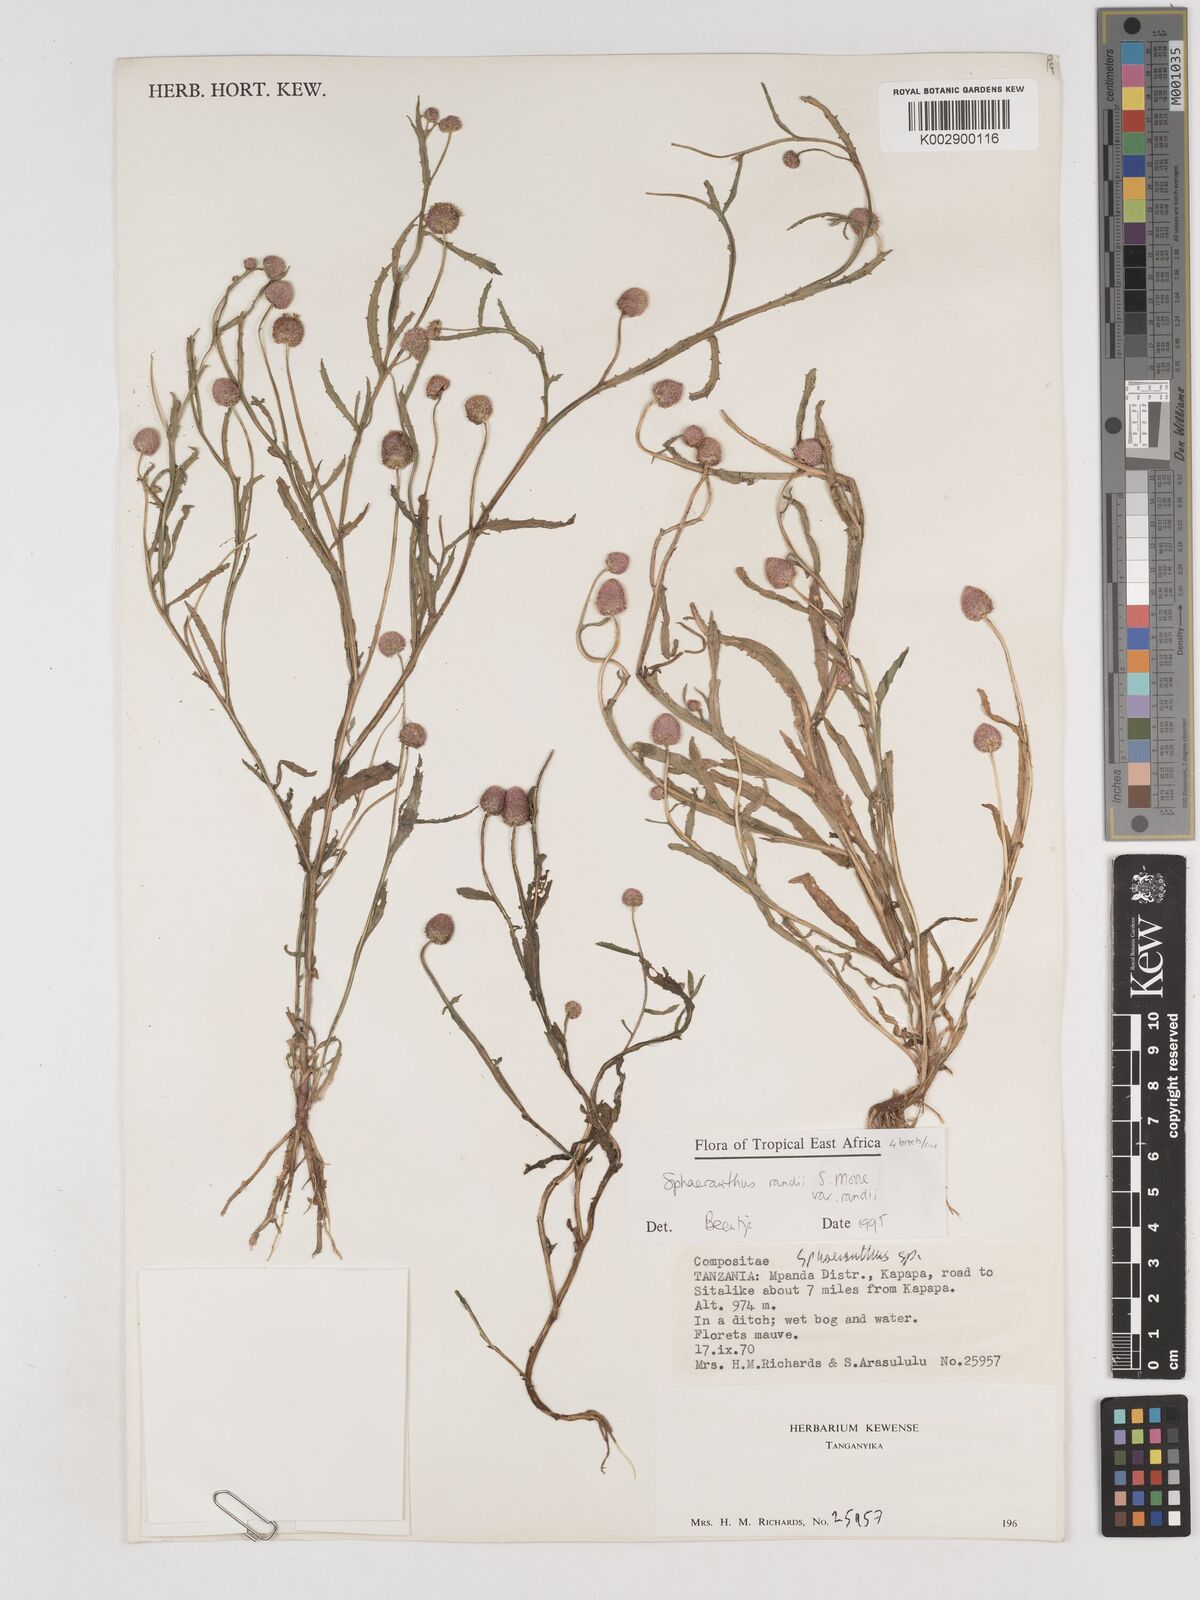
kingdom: Plantae
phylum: Tracheophyta
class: Magnoliopsida
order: Asterales
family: Asteraceae
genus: Sphaeranthus
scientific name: Sphaeranthus randii
